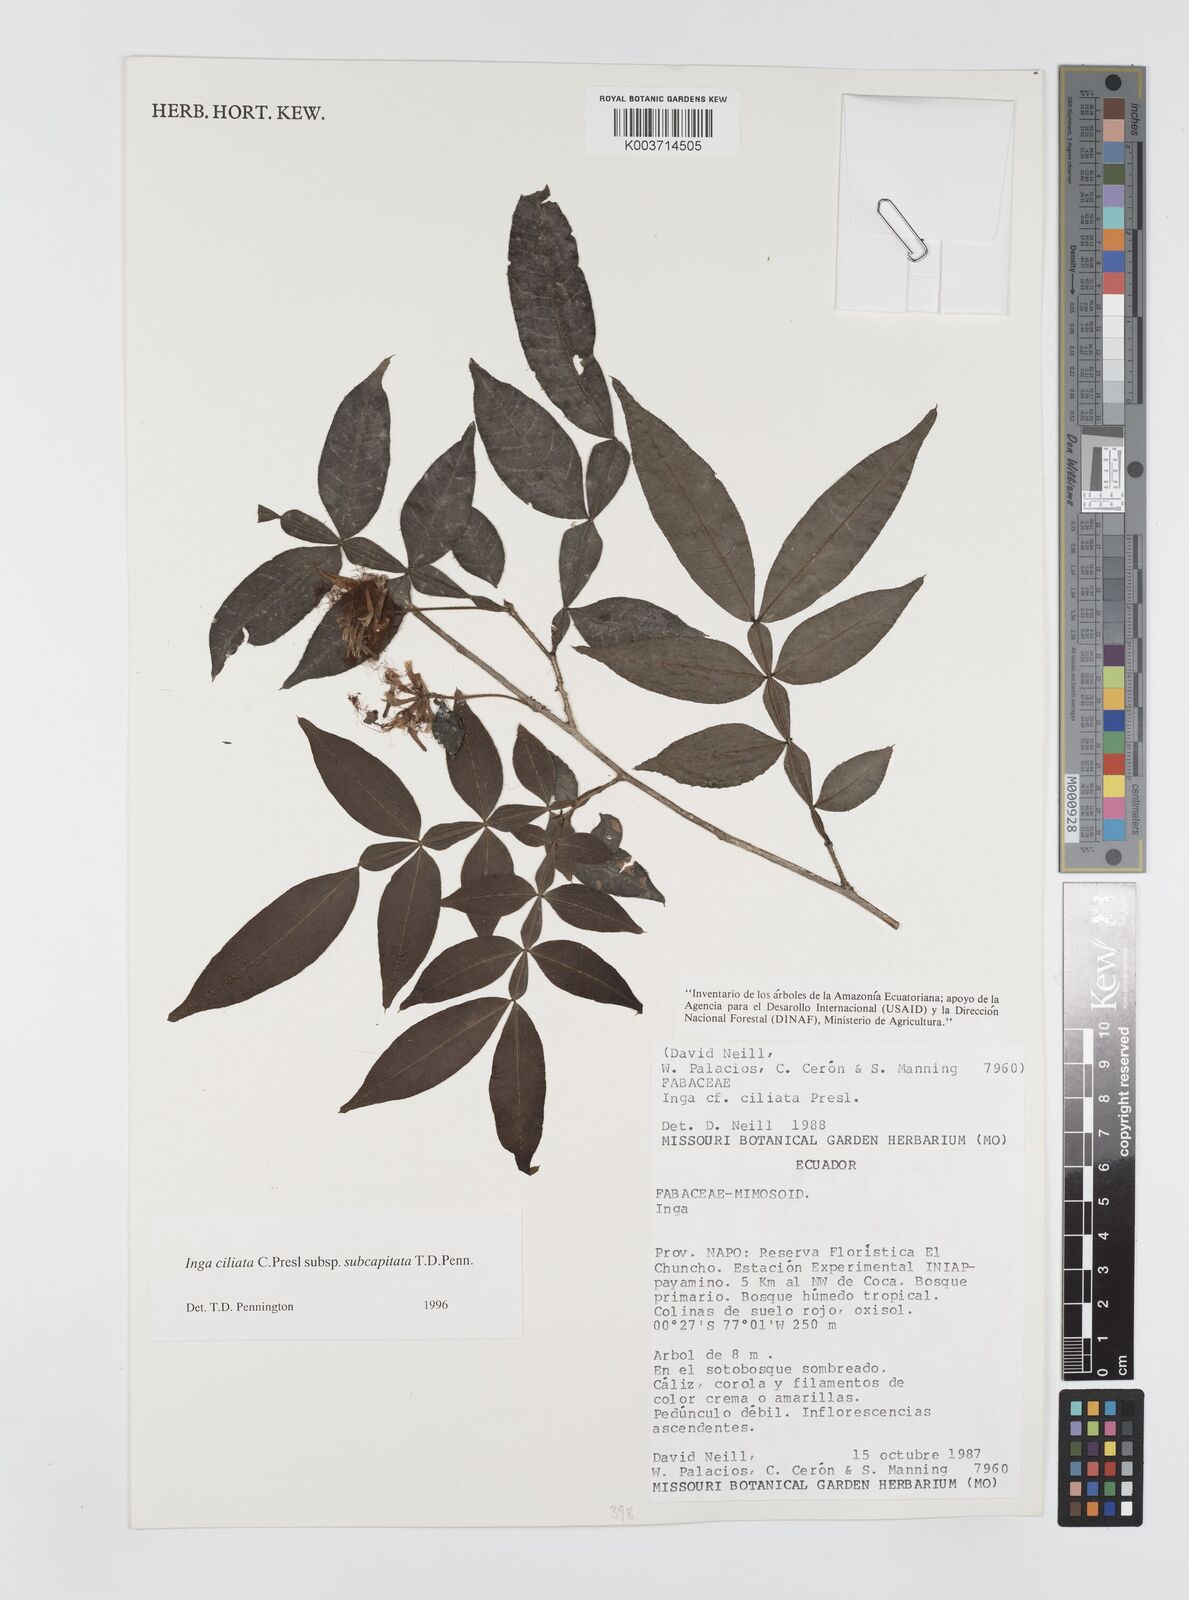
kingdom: Plantae
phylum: Tracheophyta
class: Magnoliopsida
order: Fabales
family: Fabaceae
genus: Inga
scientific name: Inga ciliata
